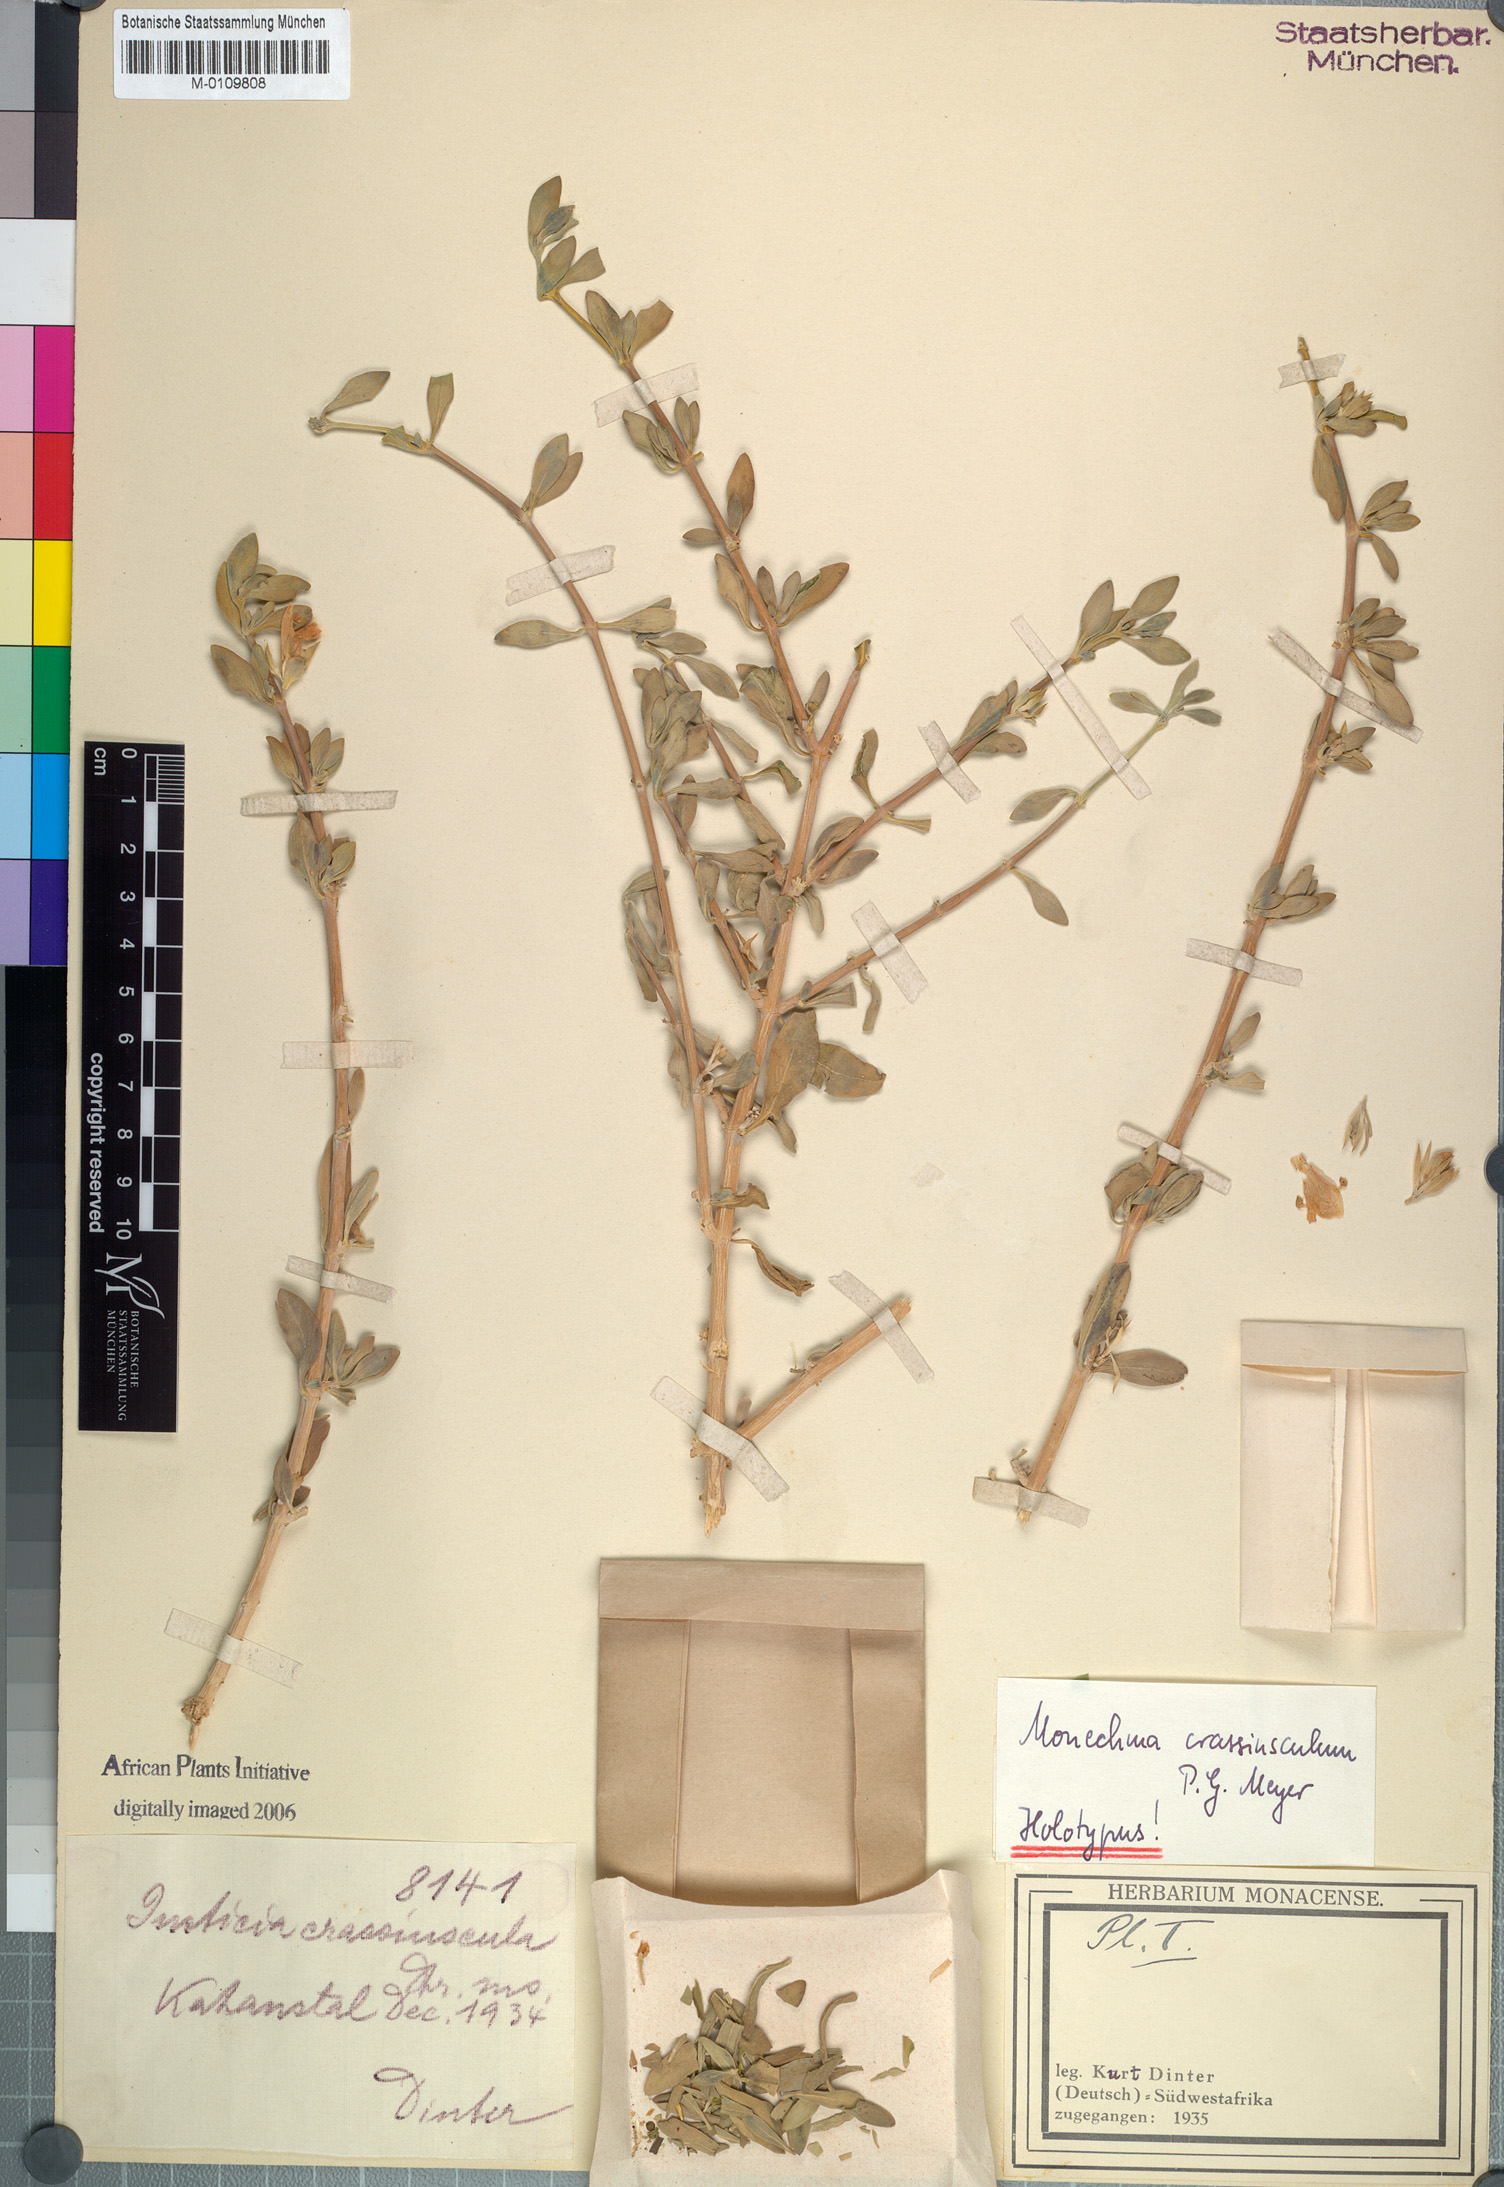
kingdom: Plantae
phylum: Tracheophyta
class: Magnoliopsida
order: Lamiales
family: Acanthaceae
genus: Monechma
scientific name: Monechma crassiusculum
